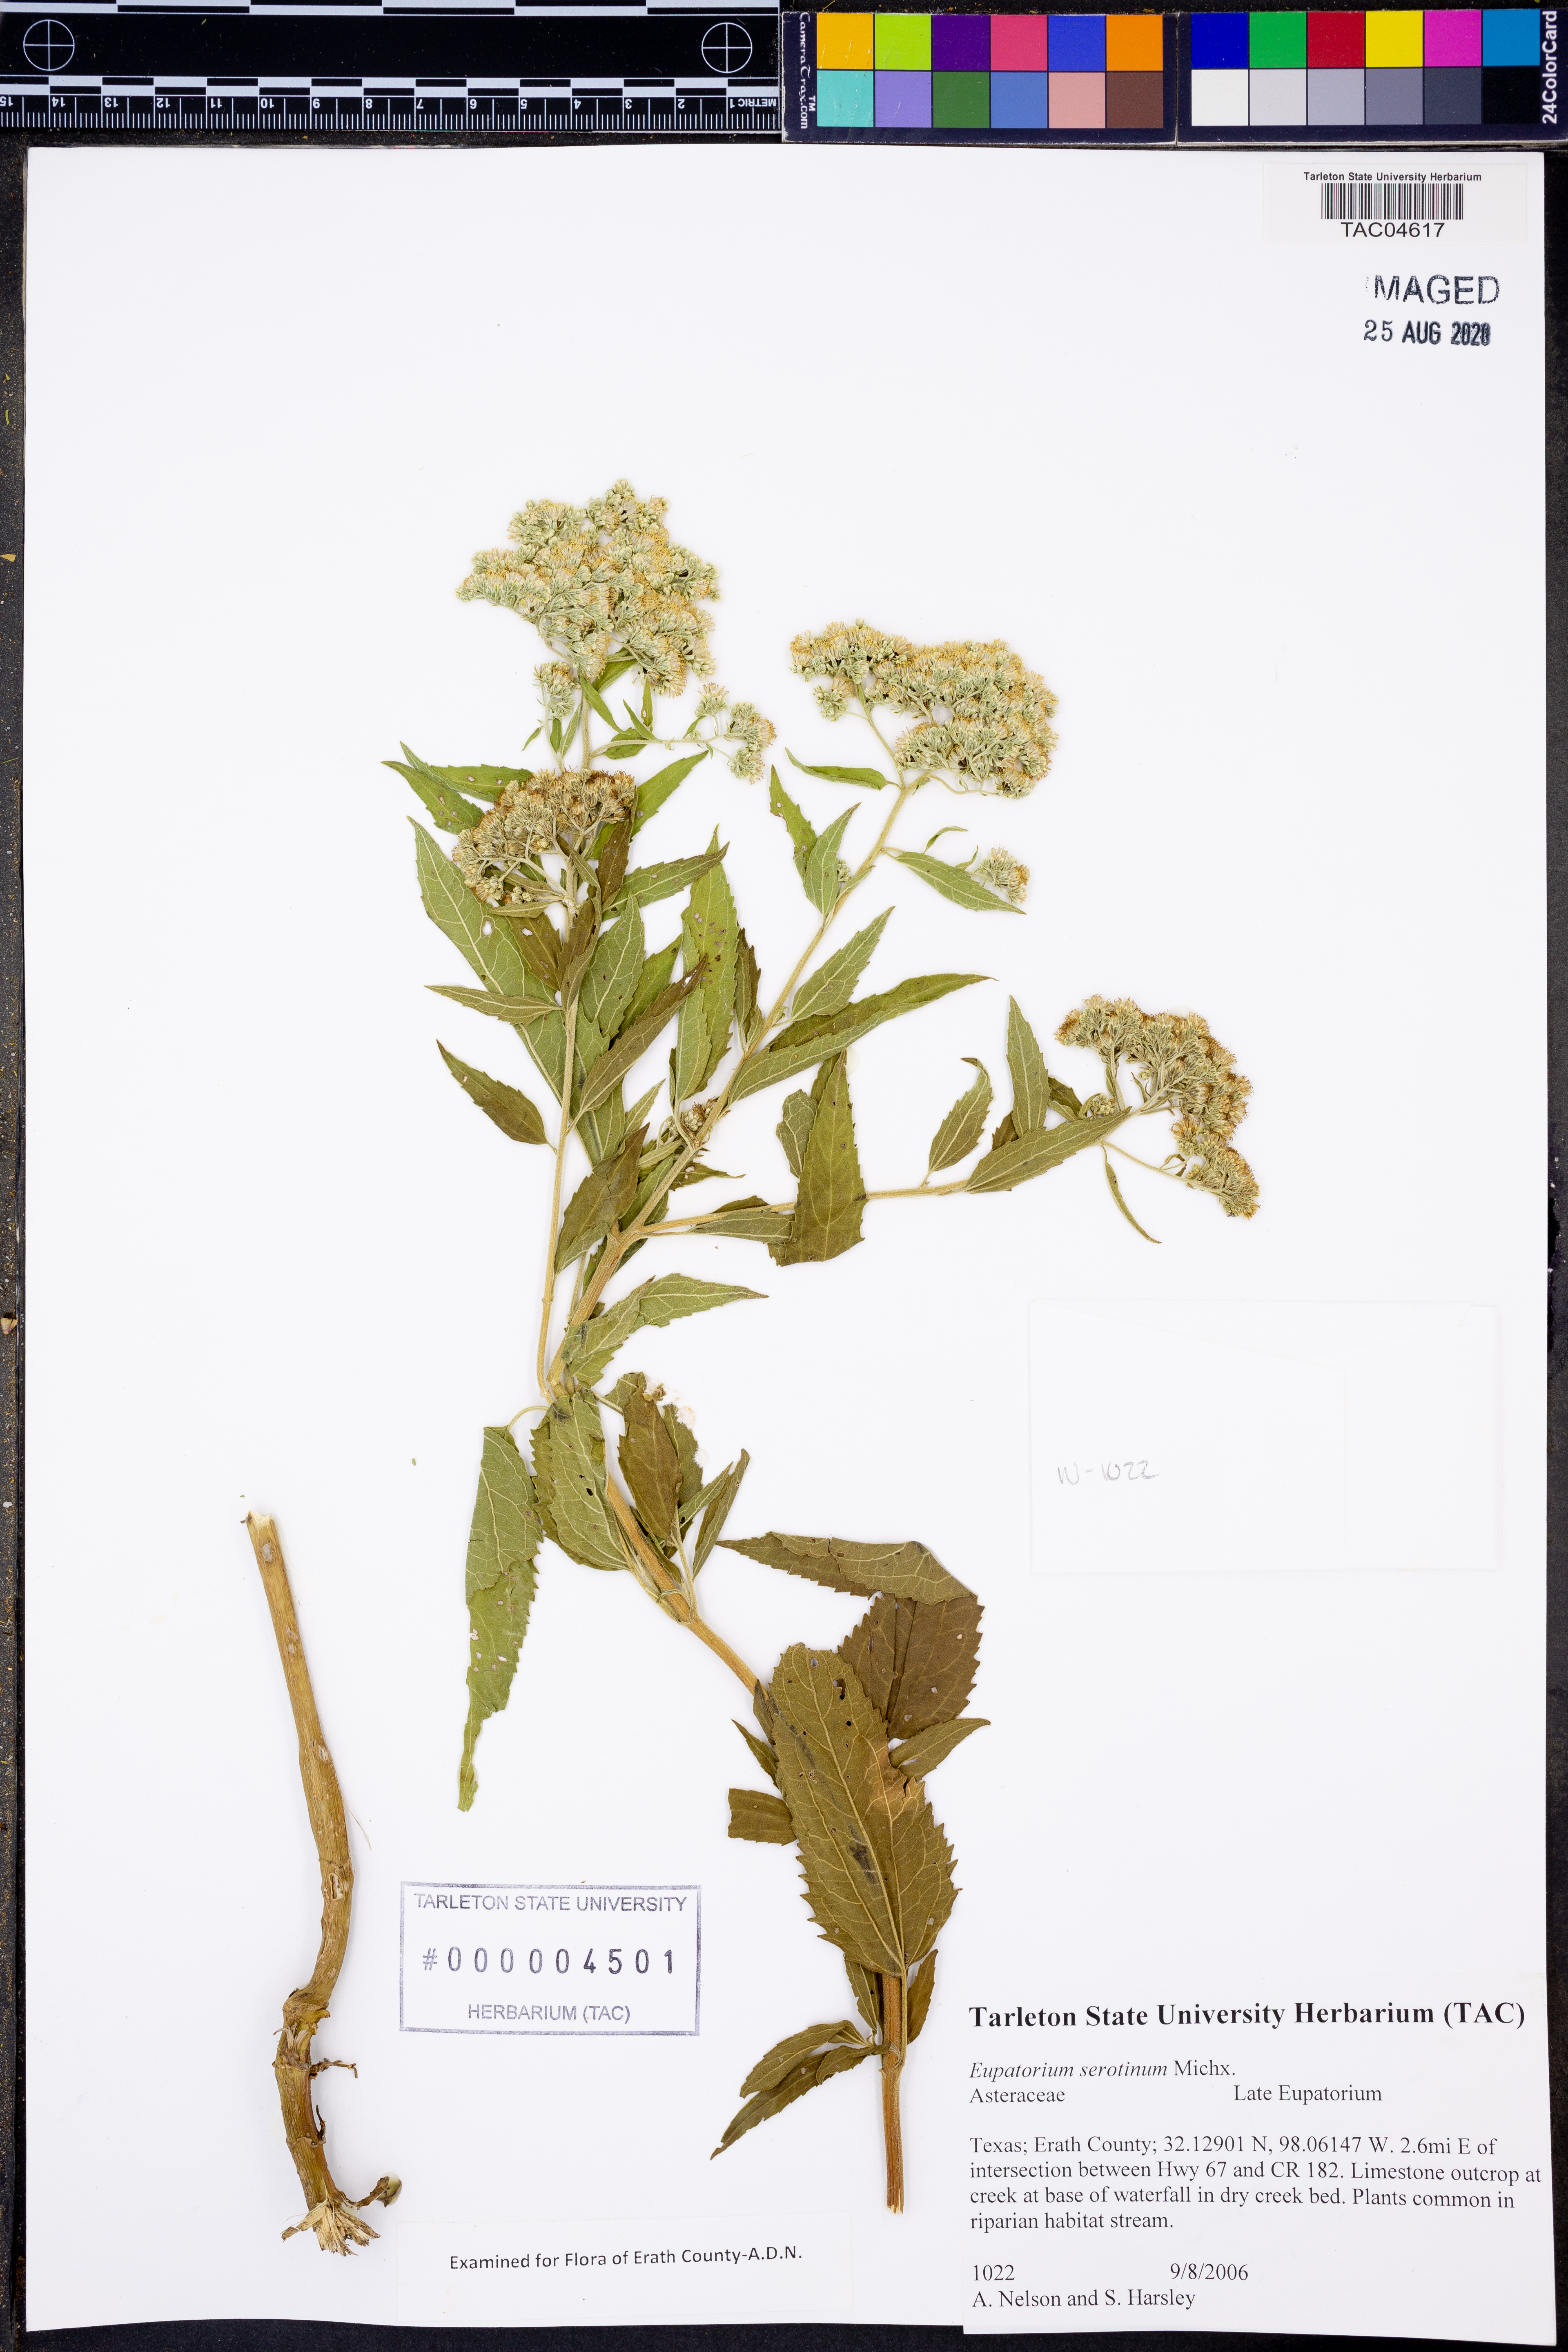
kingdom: Plantae
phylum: Tracheophyta
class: Magnoliopsida
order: Asterales
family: Asteraceae
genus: Eupatorium
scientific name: Eupatorium serotinum
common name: Late boneset
